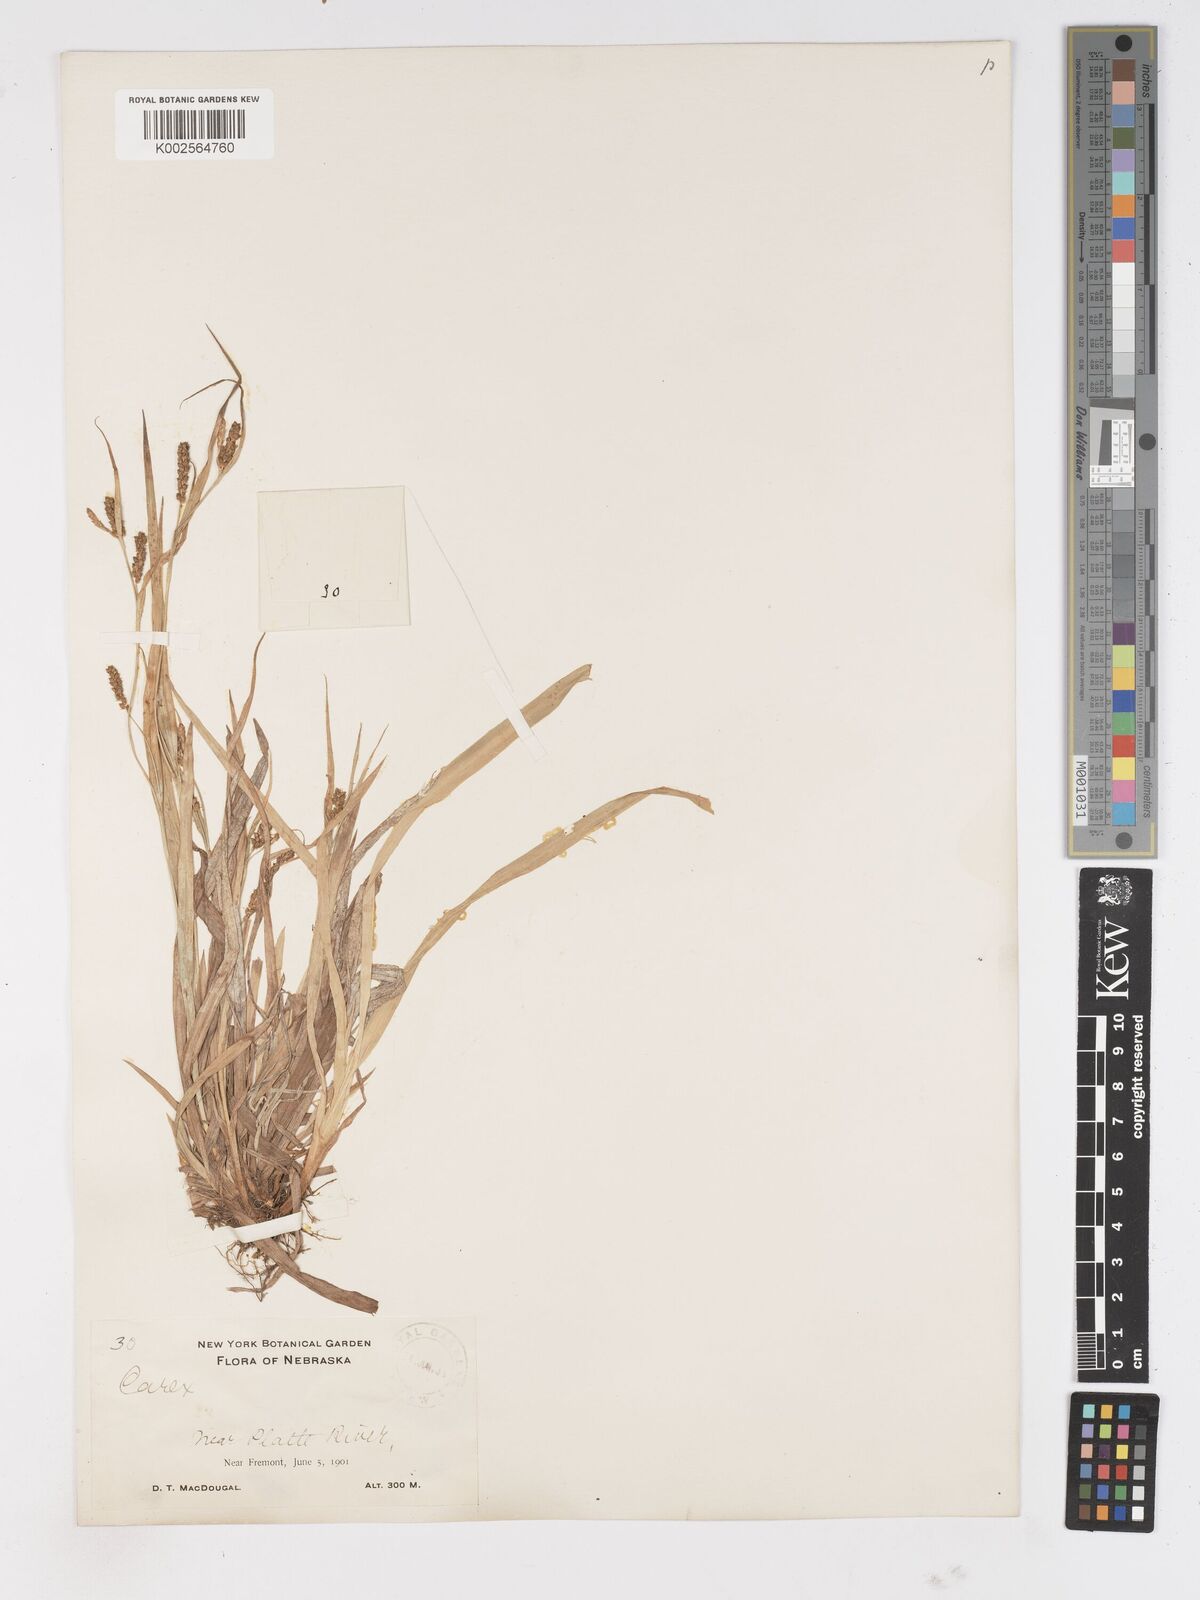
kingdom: Plantae
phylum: Tracheophyta
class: Liliopsida
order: Poales
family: Cyperaceae
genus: Carex
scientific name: Carex
